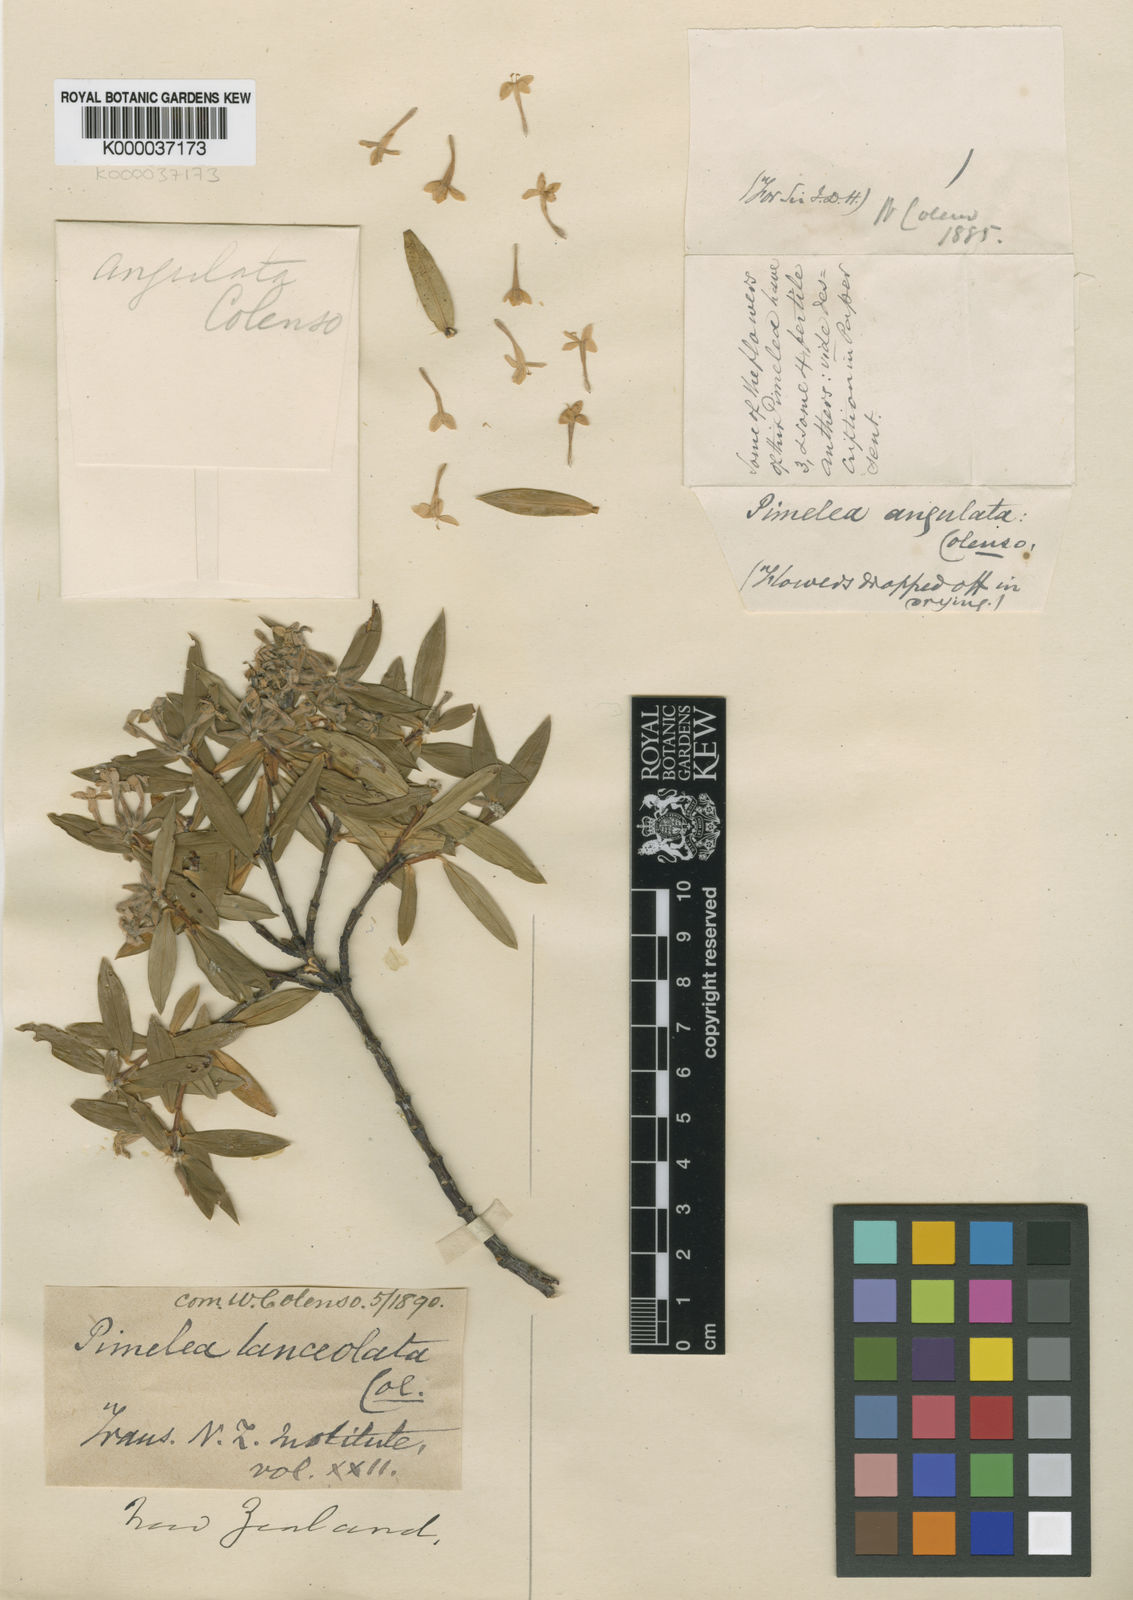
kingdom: Plantae
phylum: Tracheophyta
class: Magnoliopsida
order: Malvales
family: Thymelaeaceae
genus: Pimelea
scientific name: Pimelea longifolia
